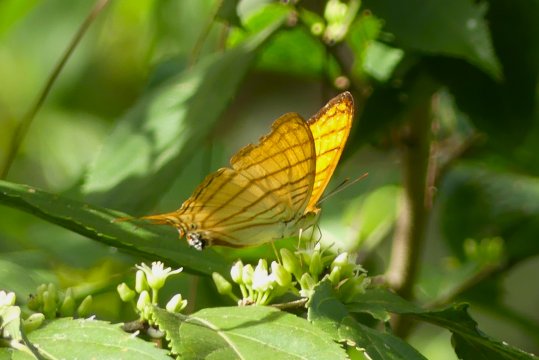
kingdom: Animalia
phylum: Arthropoda
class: Insecta
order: Lepidoptera
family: Nymphalidae
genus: Marpesia
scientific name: Marpesia berania
